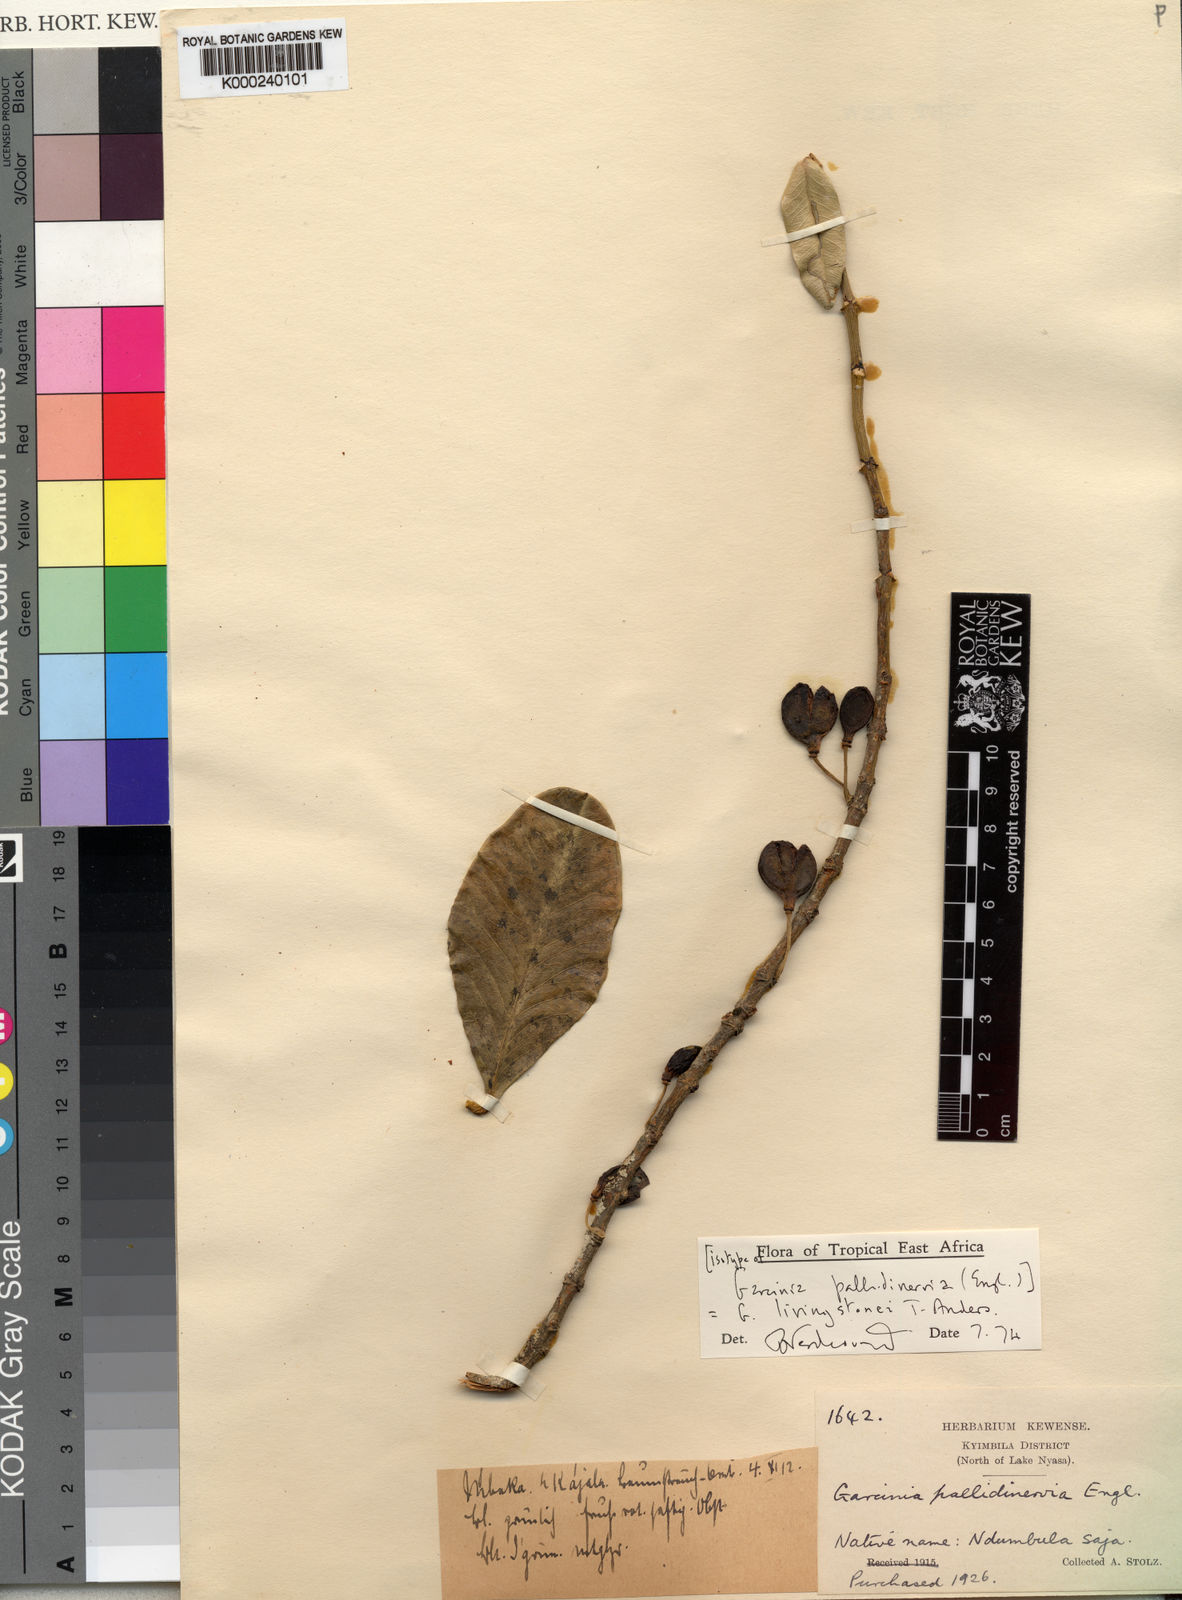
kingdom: Plantae
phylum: Tracheophyta
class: Magnoliopsida
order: Malpighiales
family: Clusiaceae
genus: Garcinia
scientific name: Garcinia livingstonei
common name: African mangosteen
